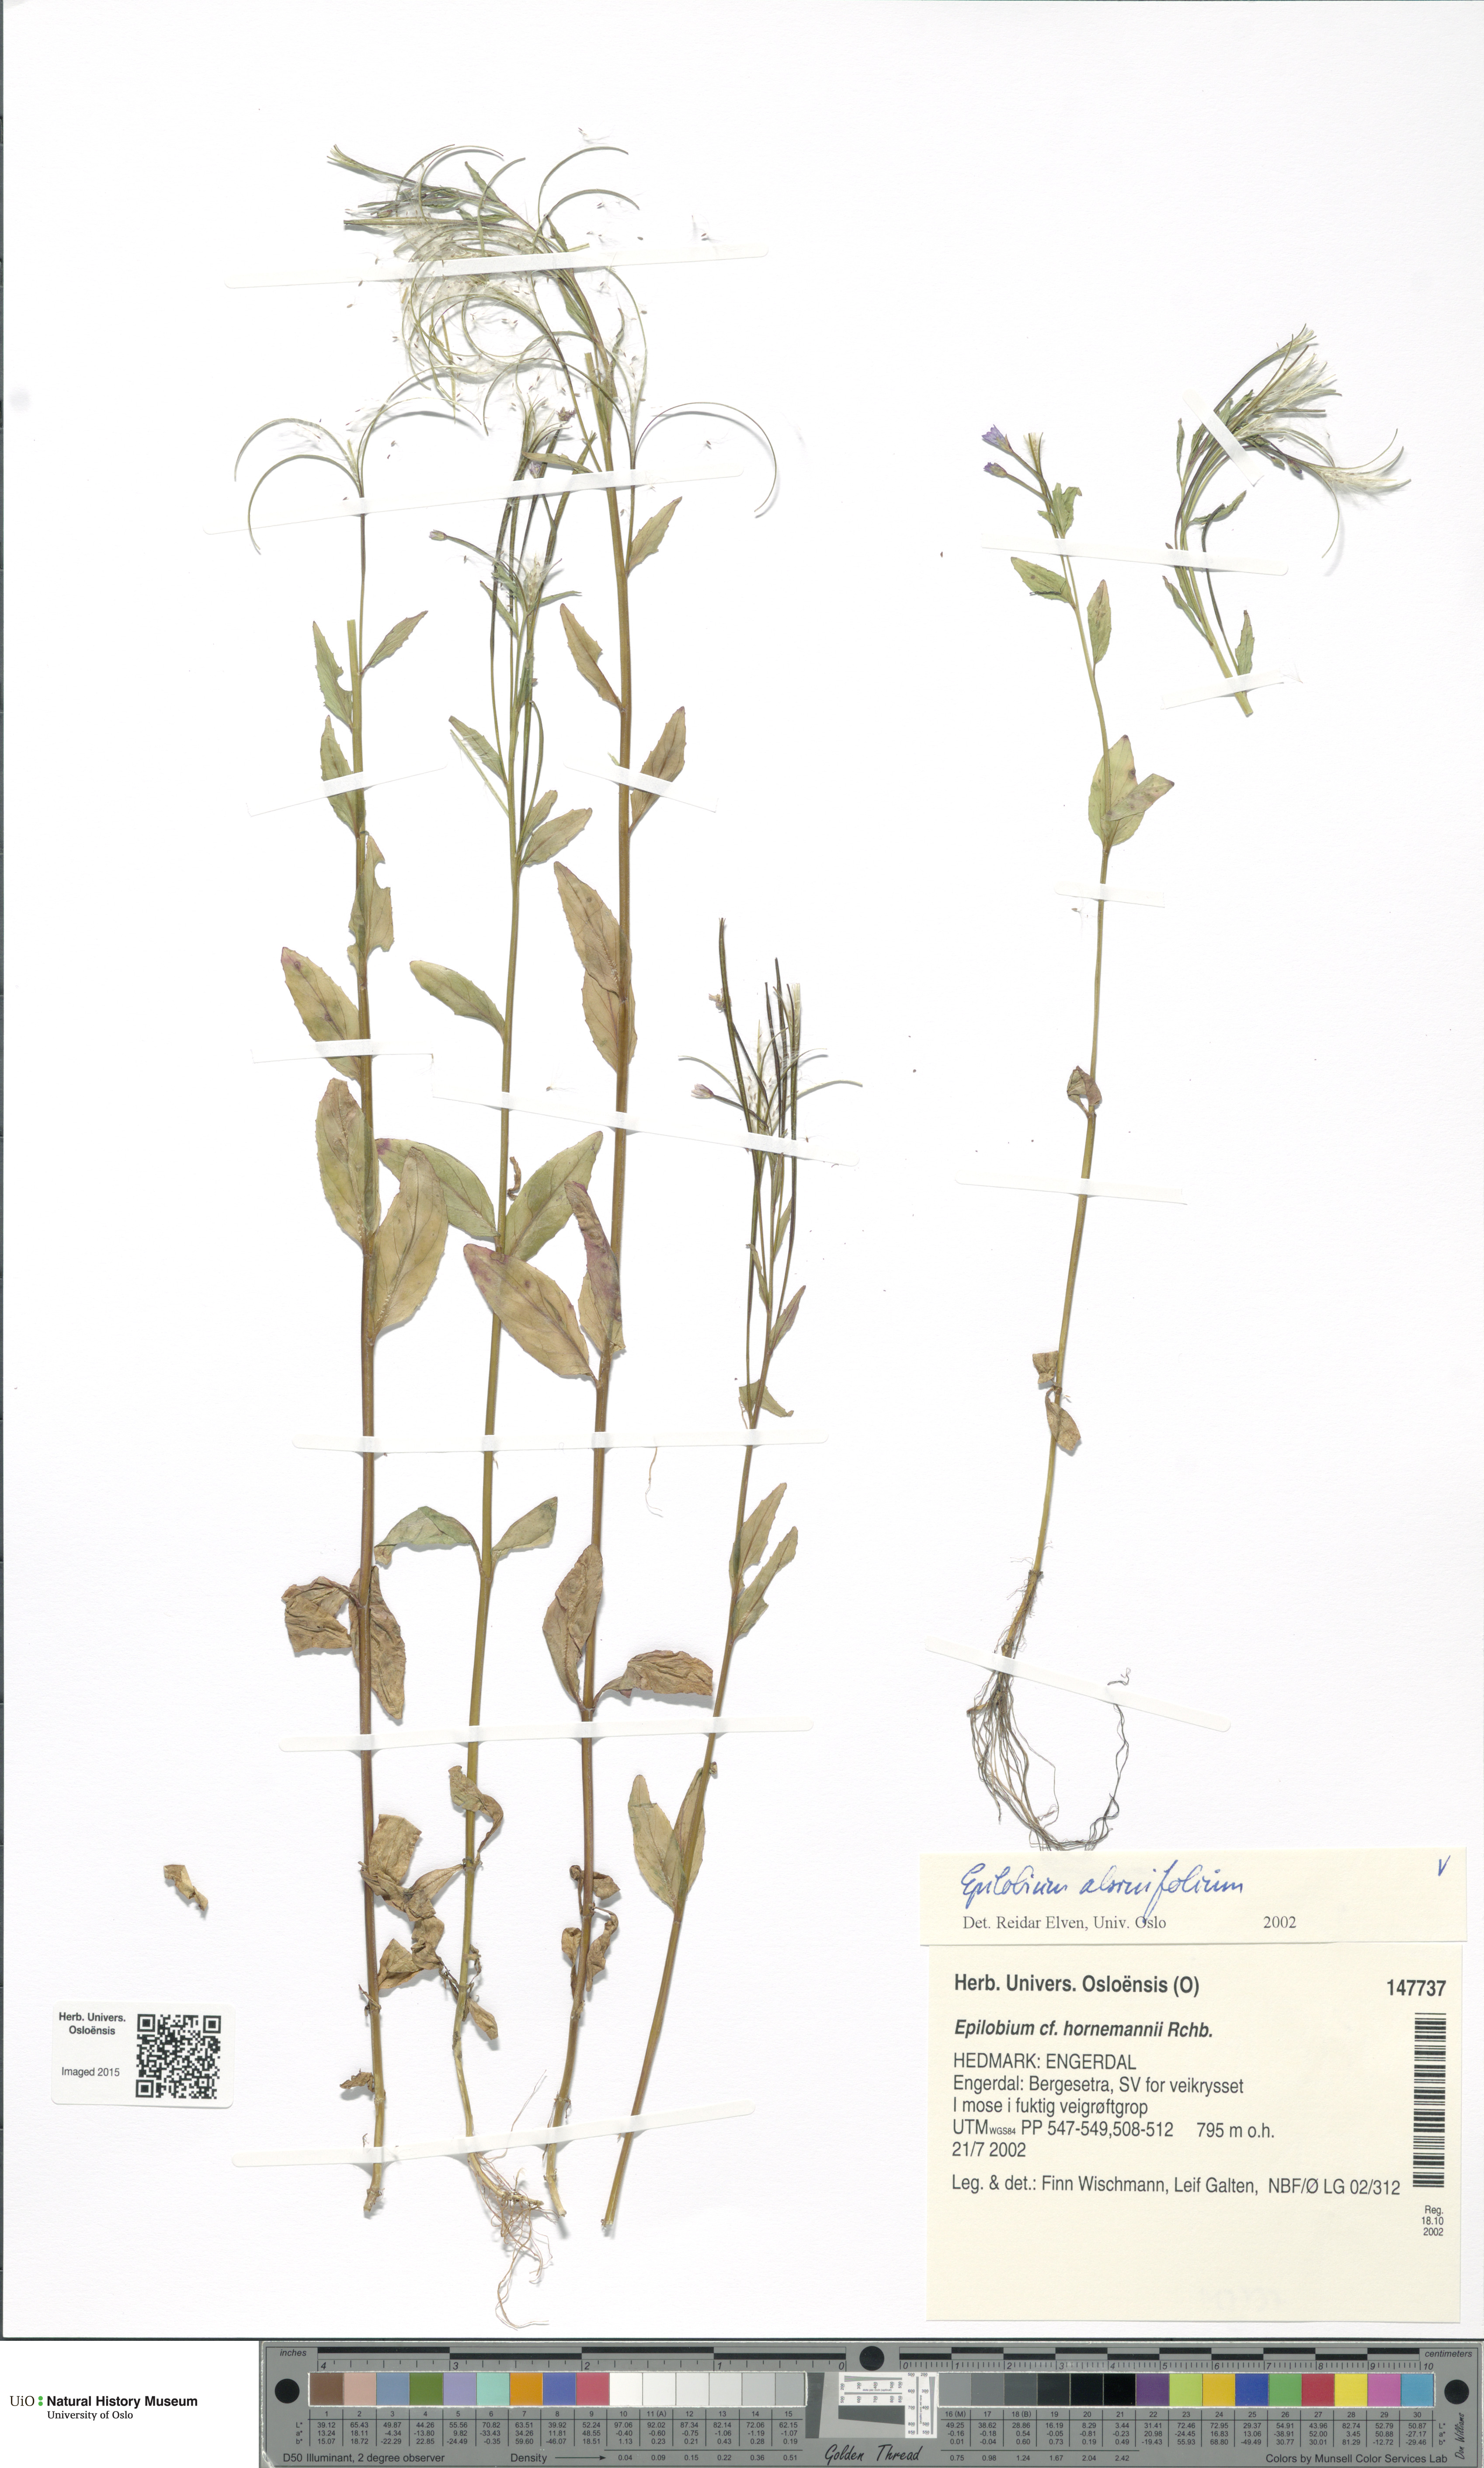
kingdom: Plantae
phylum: Tracheophyta
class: Magnoliopsida
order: Myrtales
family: Onagraceae
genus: Epilobium
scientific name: Epilobium alsinifolium
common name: Chickweed willowherb
